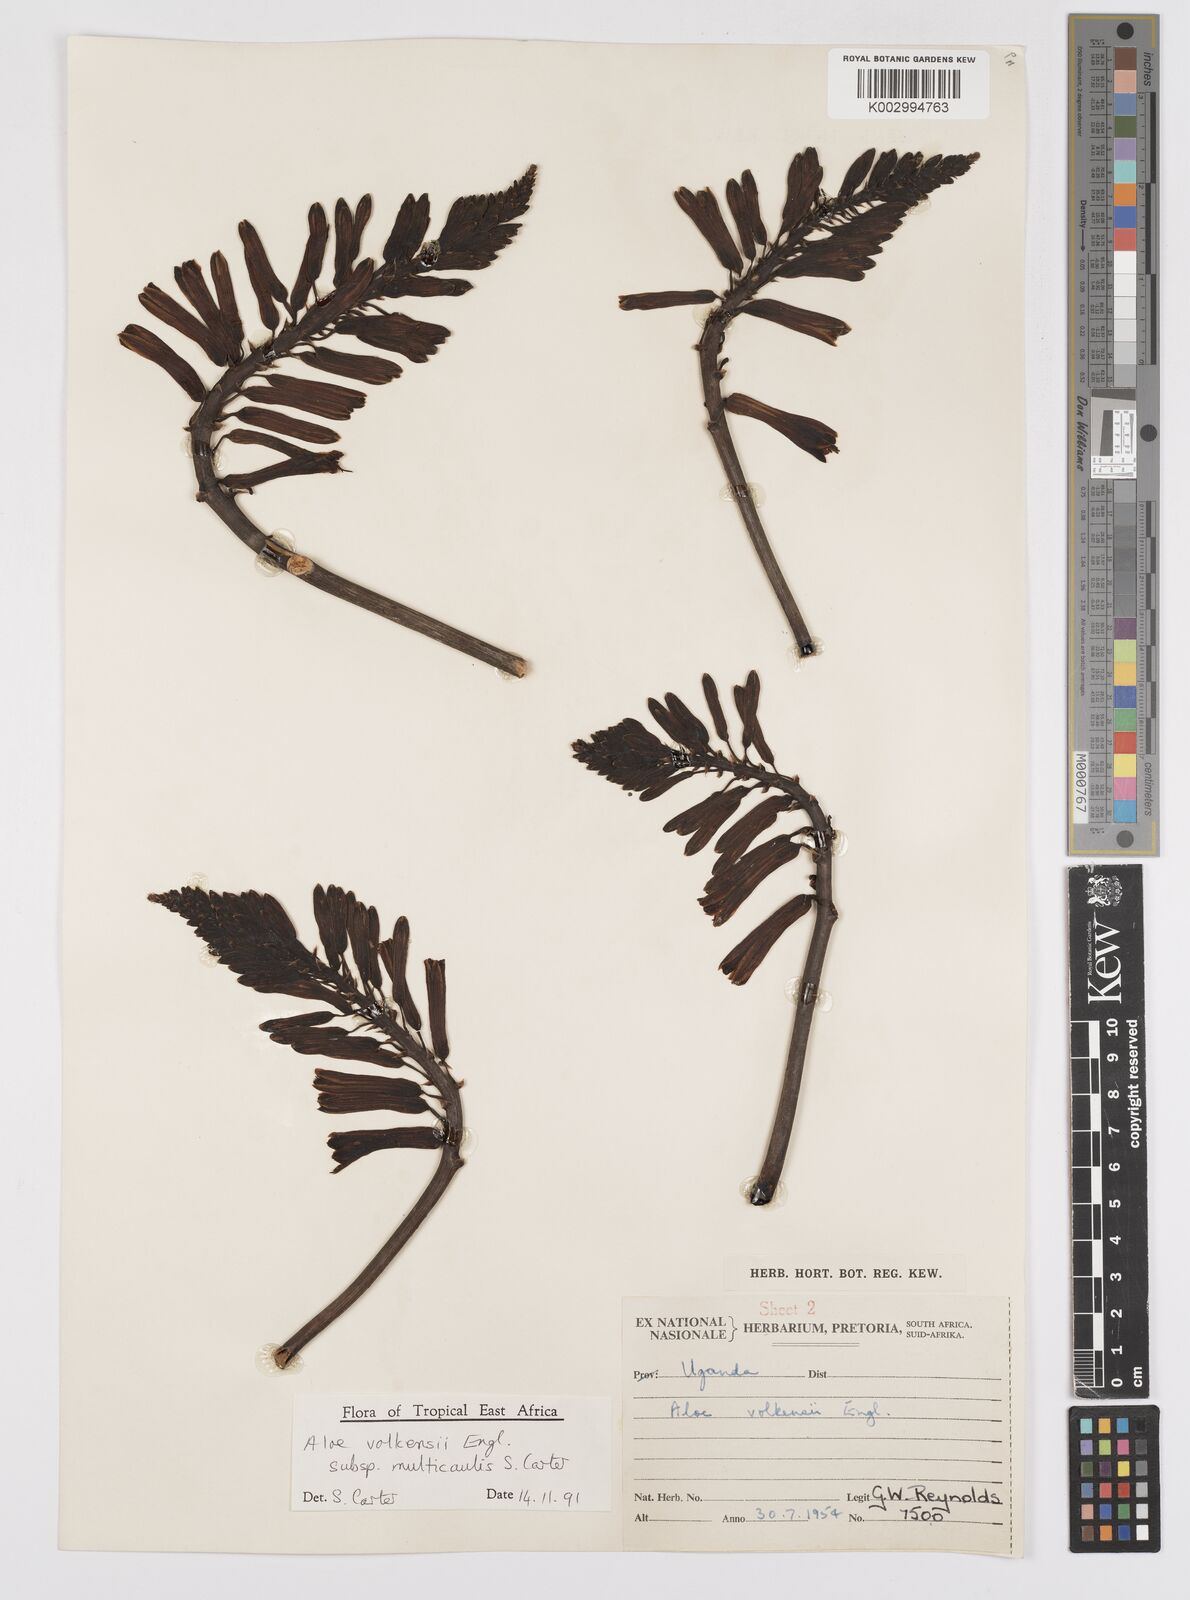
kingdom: Plantae
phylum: Tracheophyta
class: Liliopsida
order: Asparagales
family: Asphodelaceae
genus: Aloe
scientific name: Aloe volkensii
